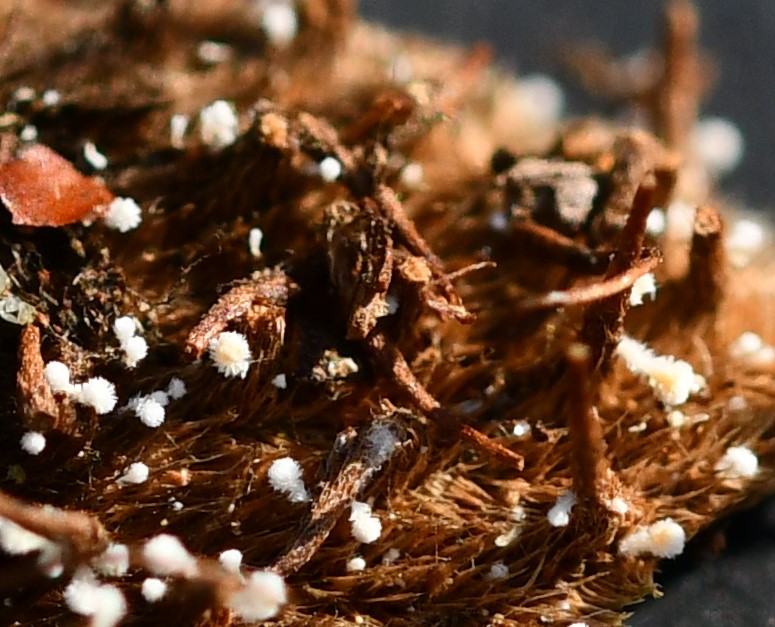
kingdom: Fungi
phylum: Ascomycota
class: Leotiomycetes
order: Helotiales
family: Lachnaceae
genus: Lachnum
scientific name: Lachnum virgineum
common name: jomfru-frynseskive
